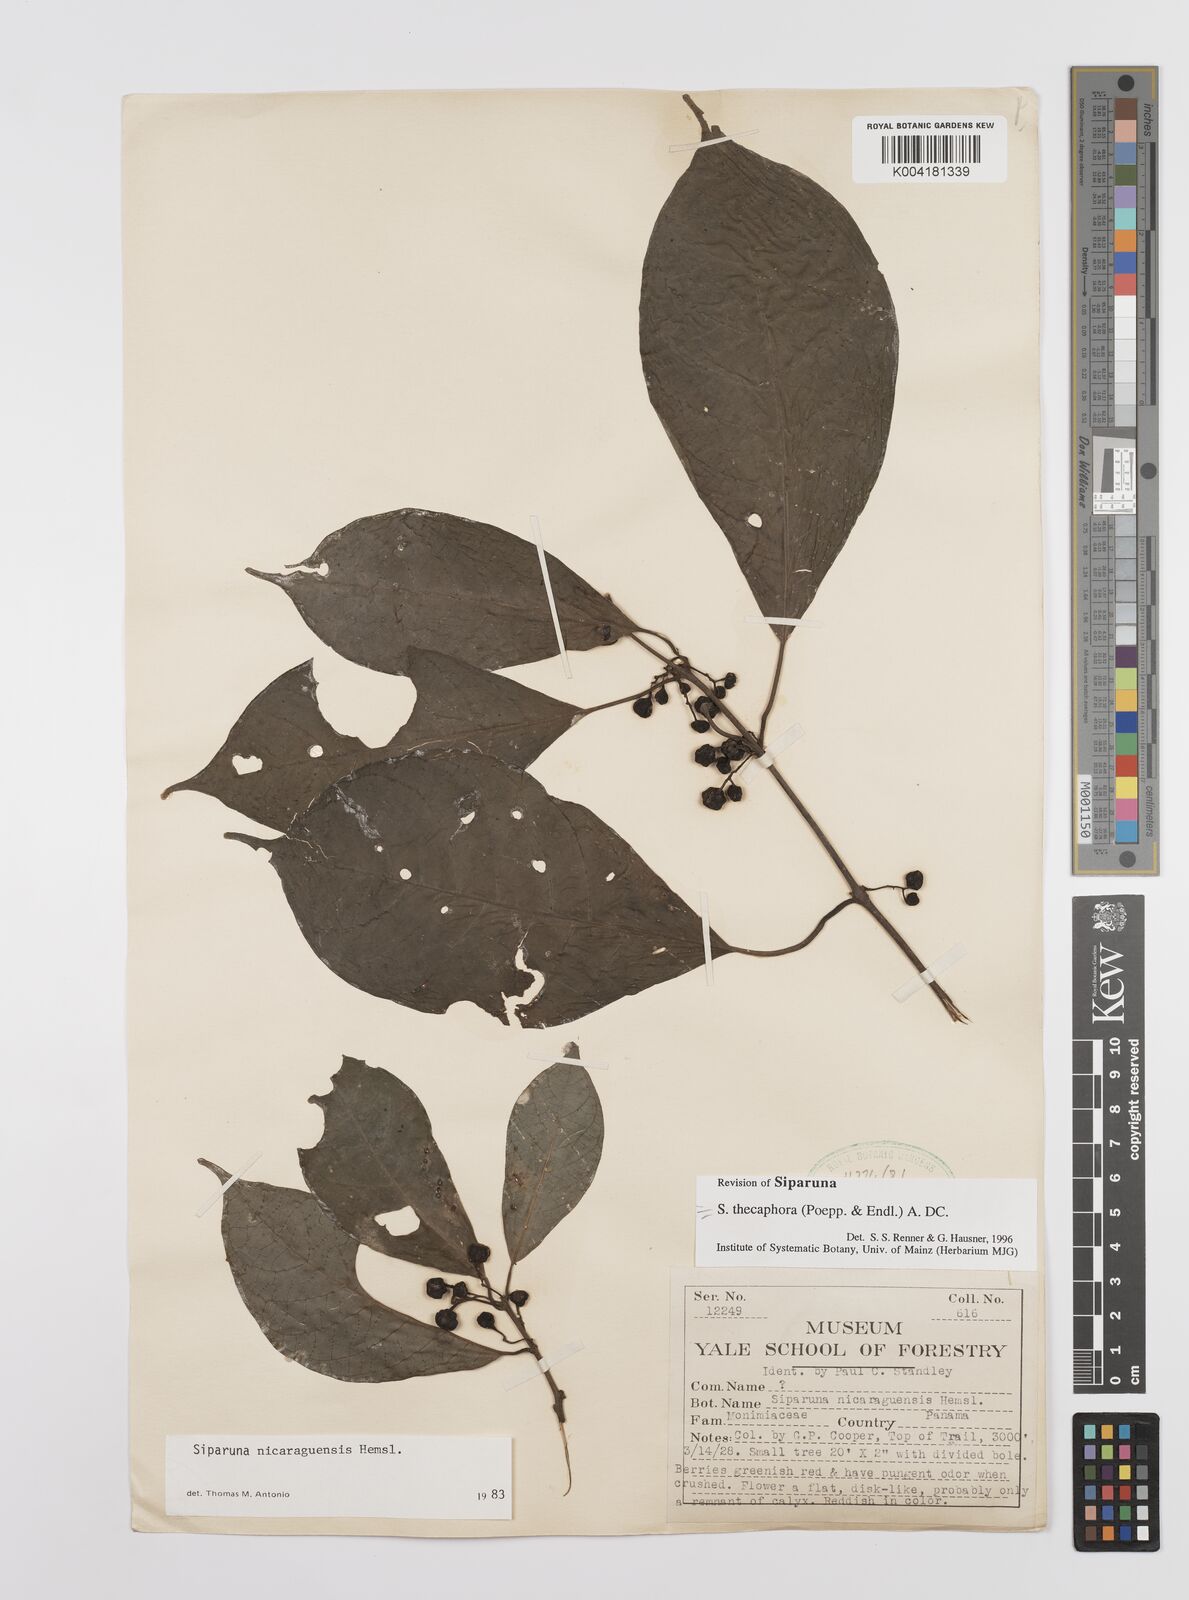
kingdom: Plantae
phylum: Tracheophyta
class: Magnoliopsida
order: Laurales
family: Siparunaceae
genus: Siparuna
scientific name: Siparuna thecaphora
